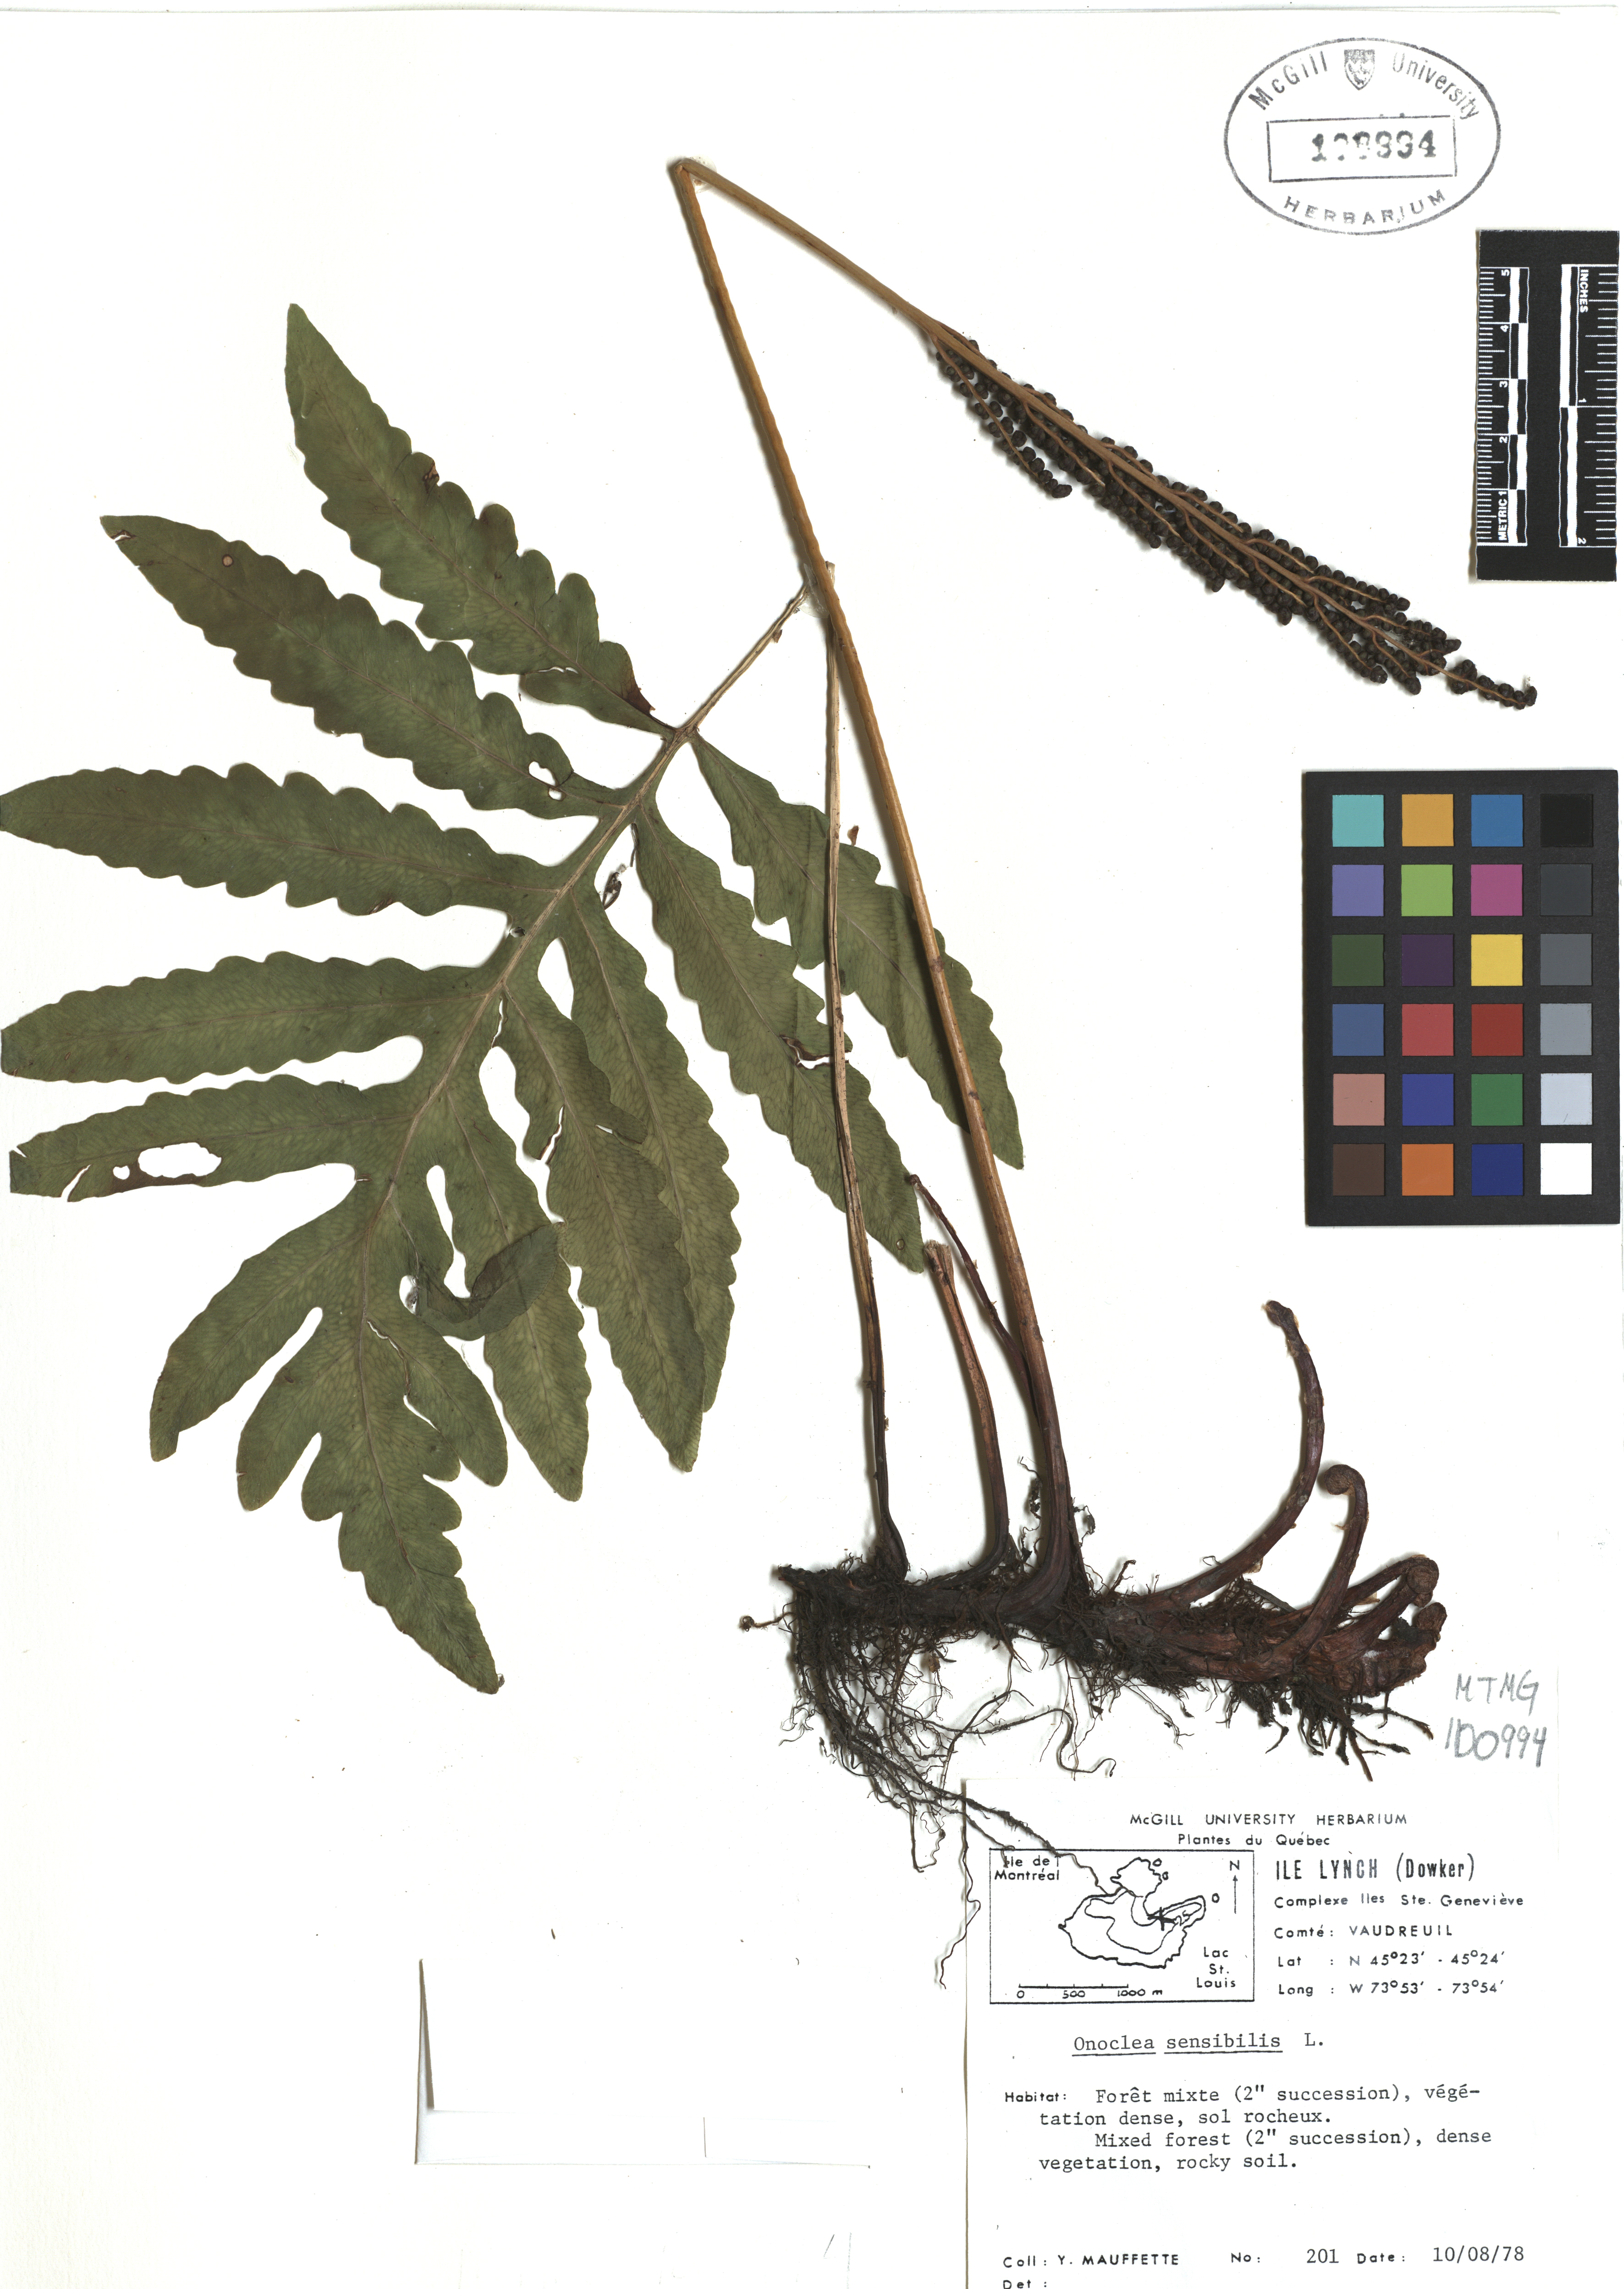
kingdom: Plantae
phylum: Tracheophyta
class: Polypodiopsida
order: Polypodiales
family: Onocleaceae
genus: Onoclea
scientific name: Onoclea sensibilis
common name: Sensitive fern
